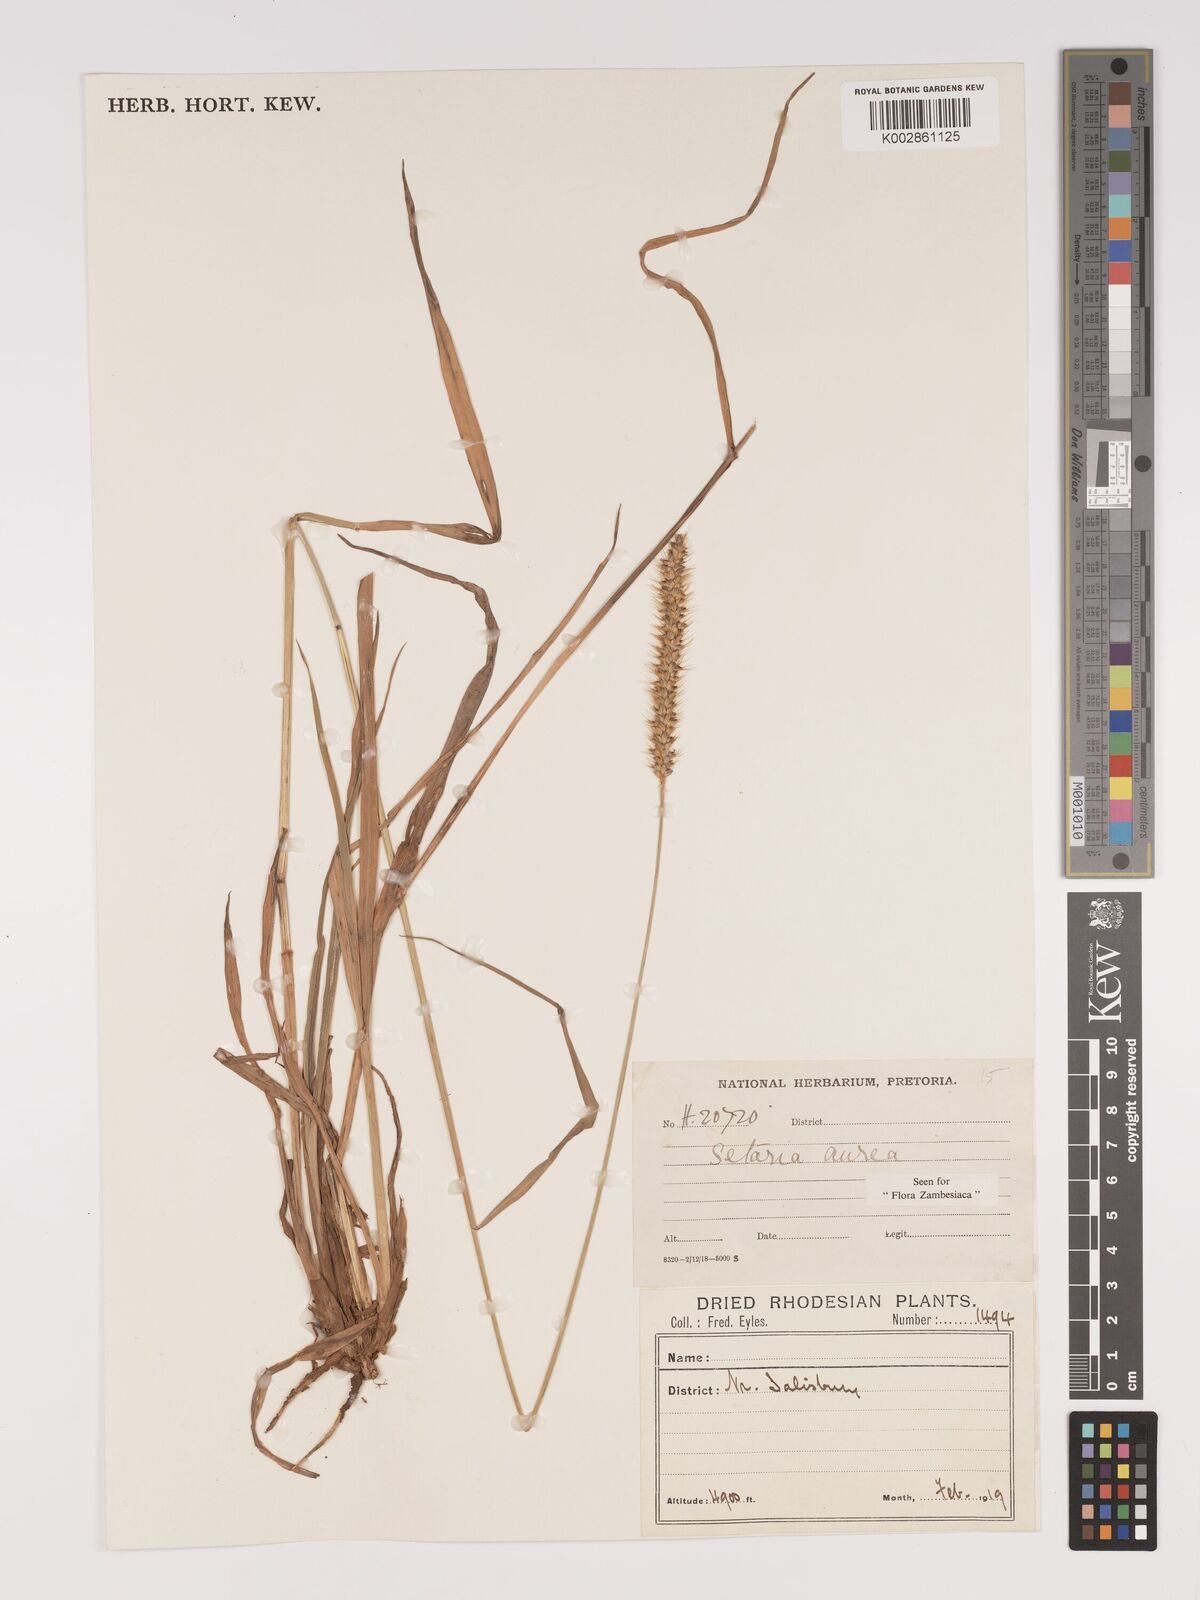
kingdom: Plantae
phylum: Tracheophyta
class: Liliopsida
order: Poales
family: Poaceae
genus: Setaria
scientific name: Setaria sphacelata
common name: African bristlegrass
